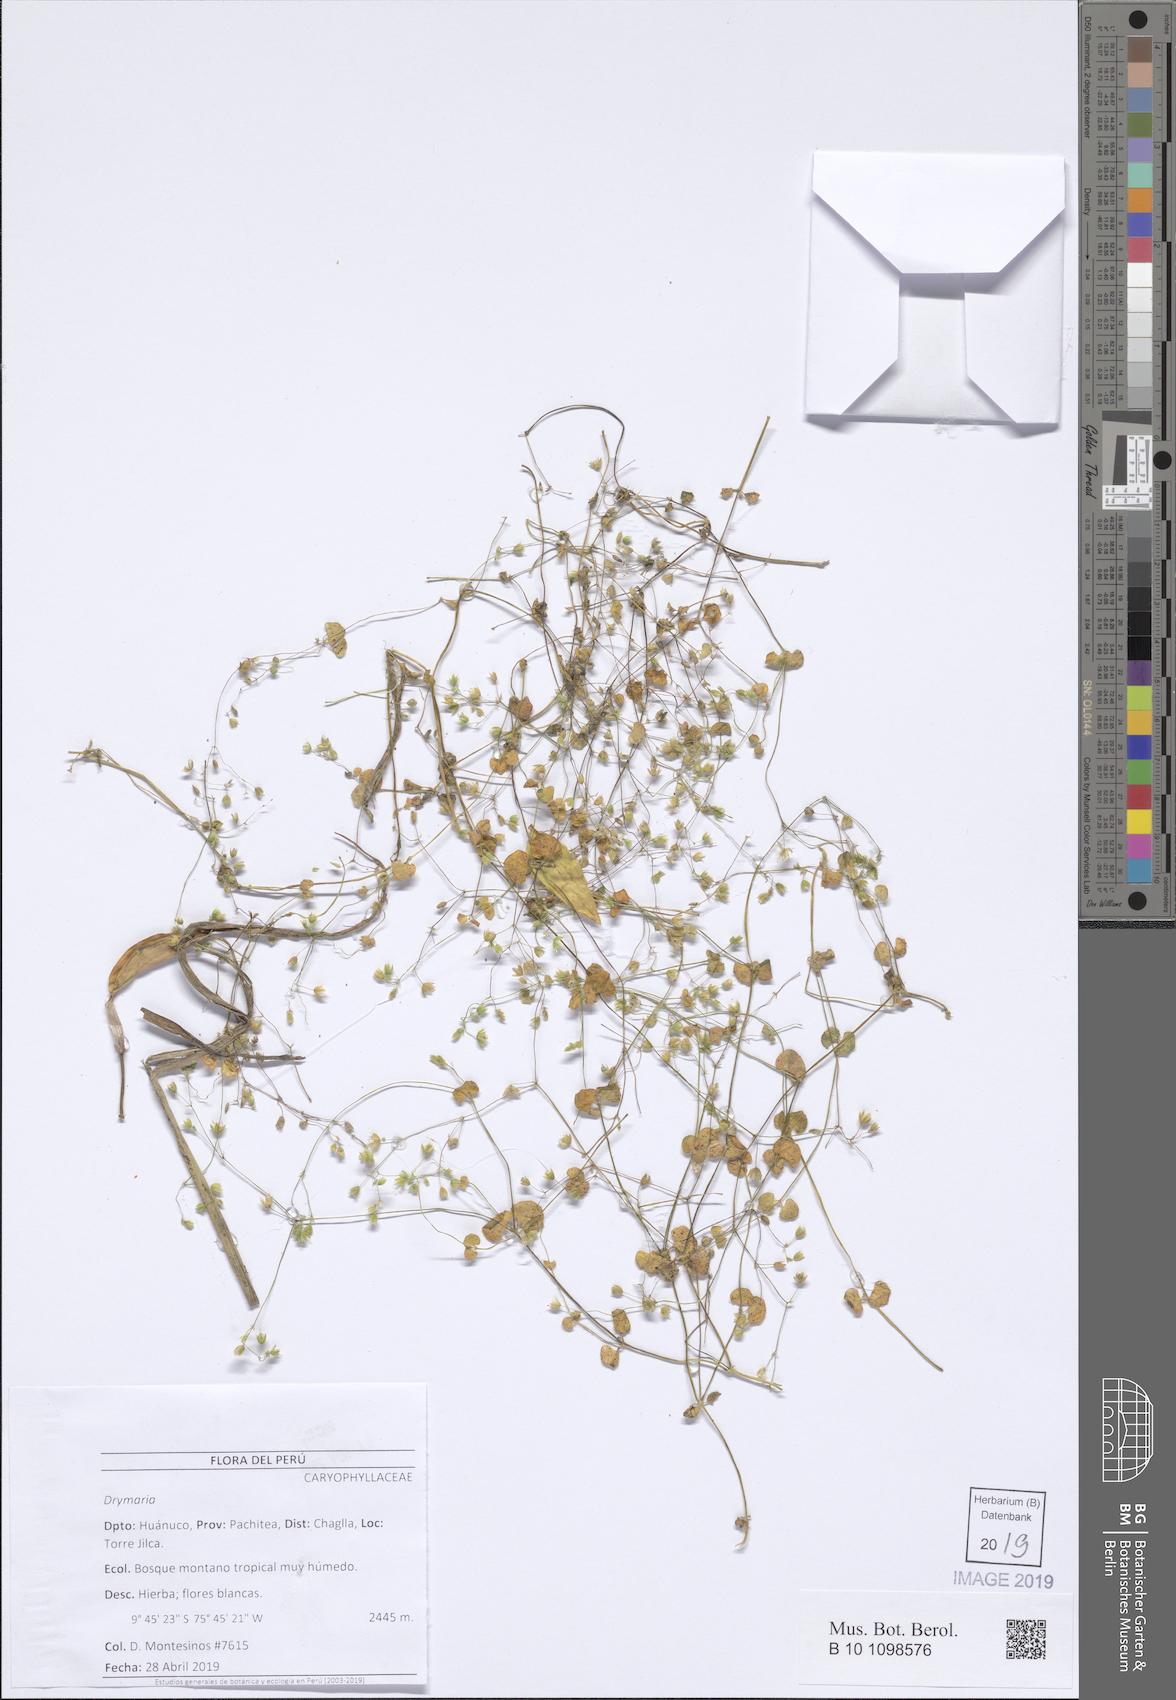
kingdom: Plantae
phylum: Tracheophyta
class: Magnoliopsida
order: Caryophyllales
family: Caryophyllaceae
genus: Drymaria
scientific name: Drymaria
